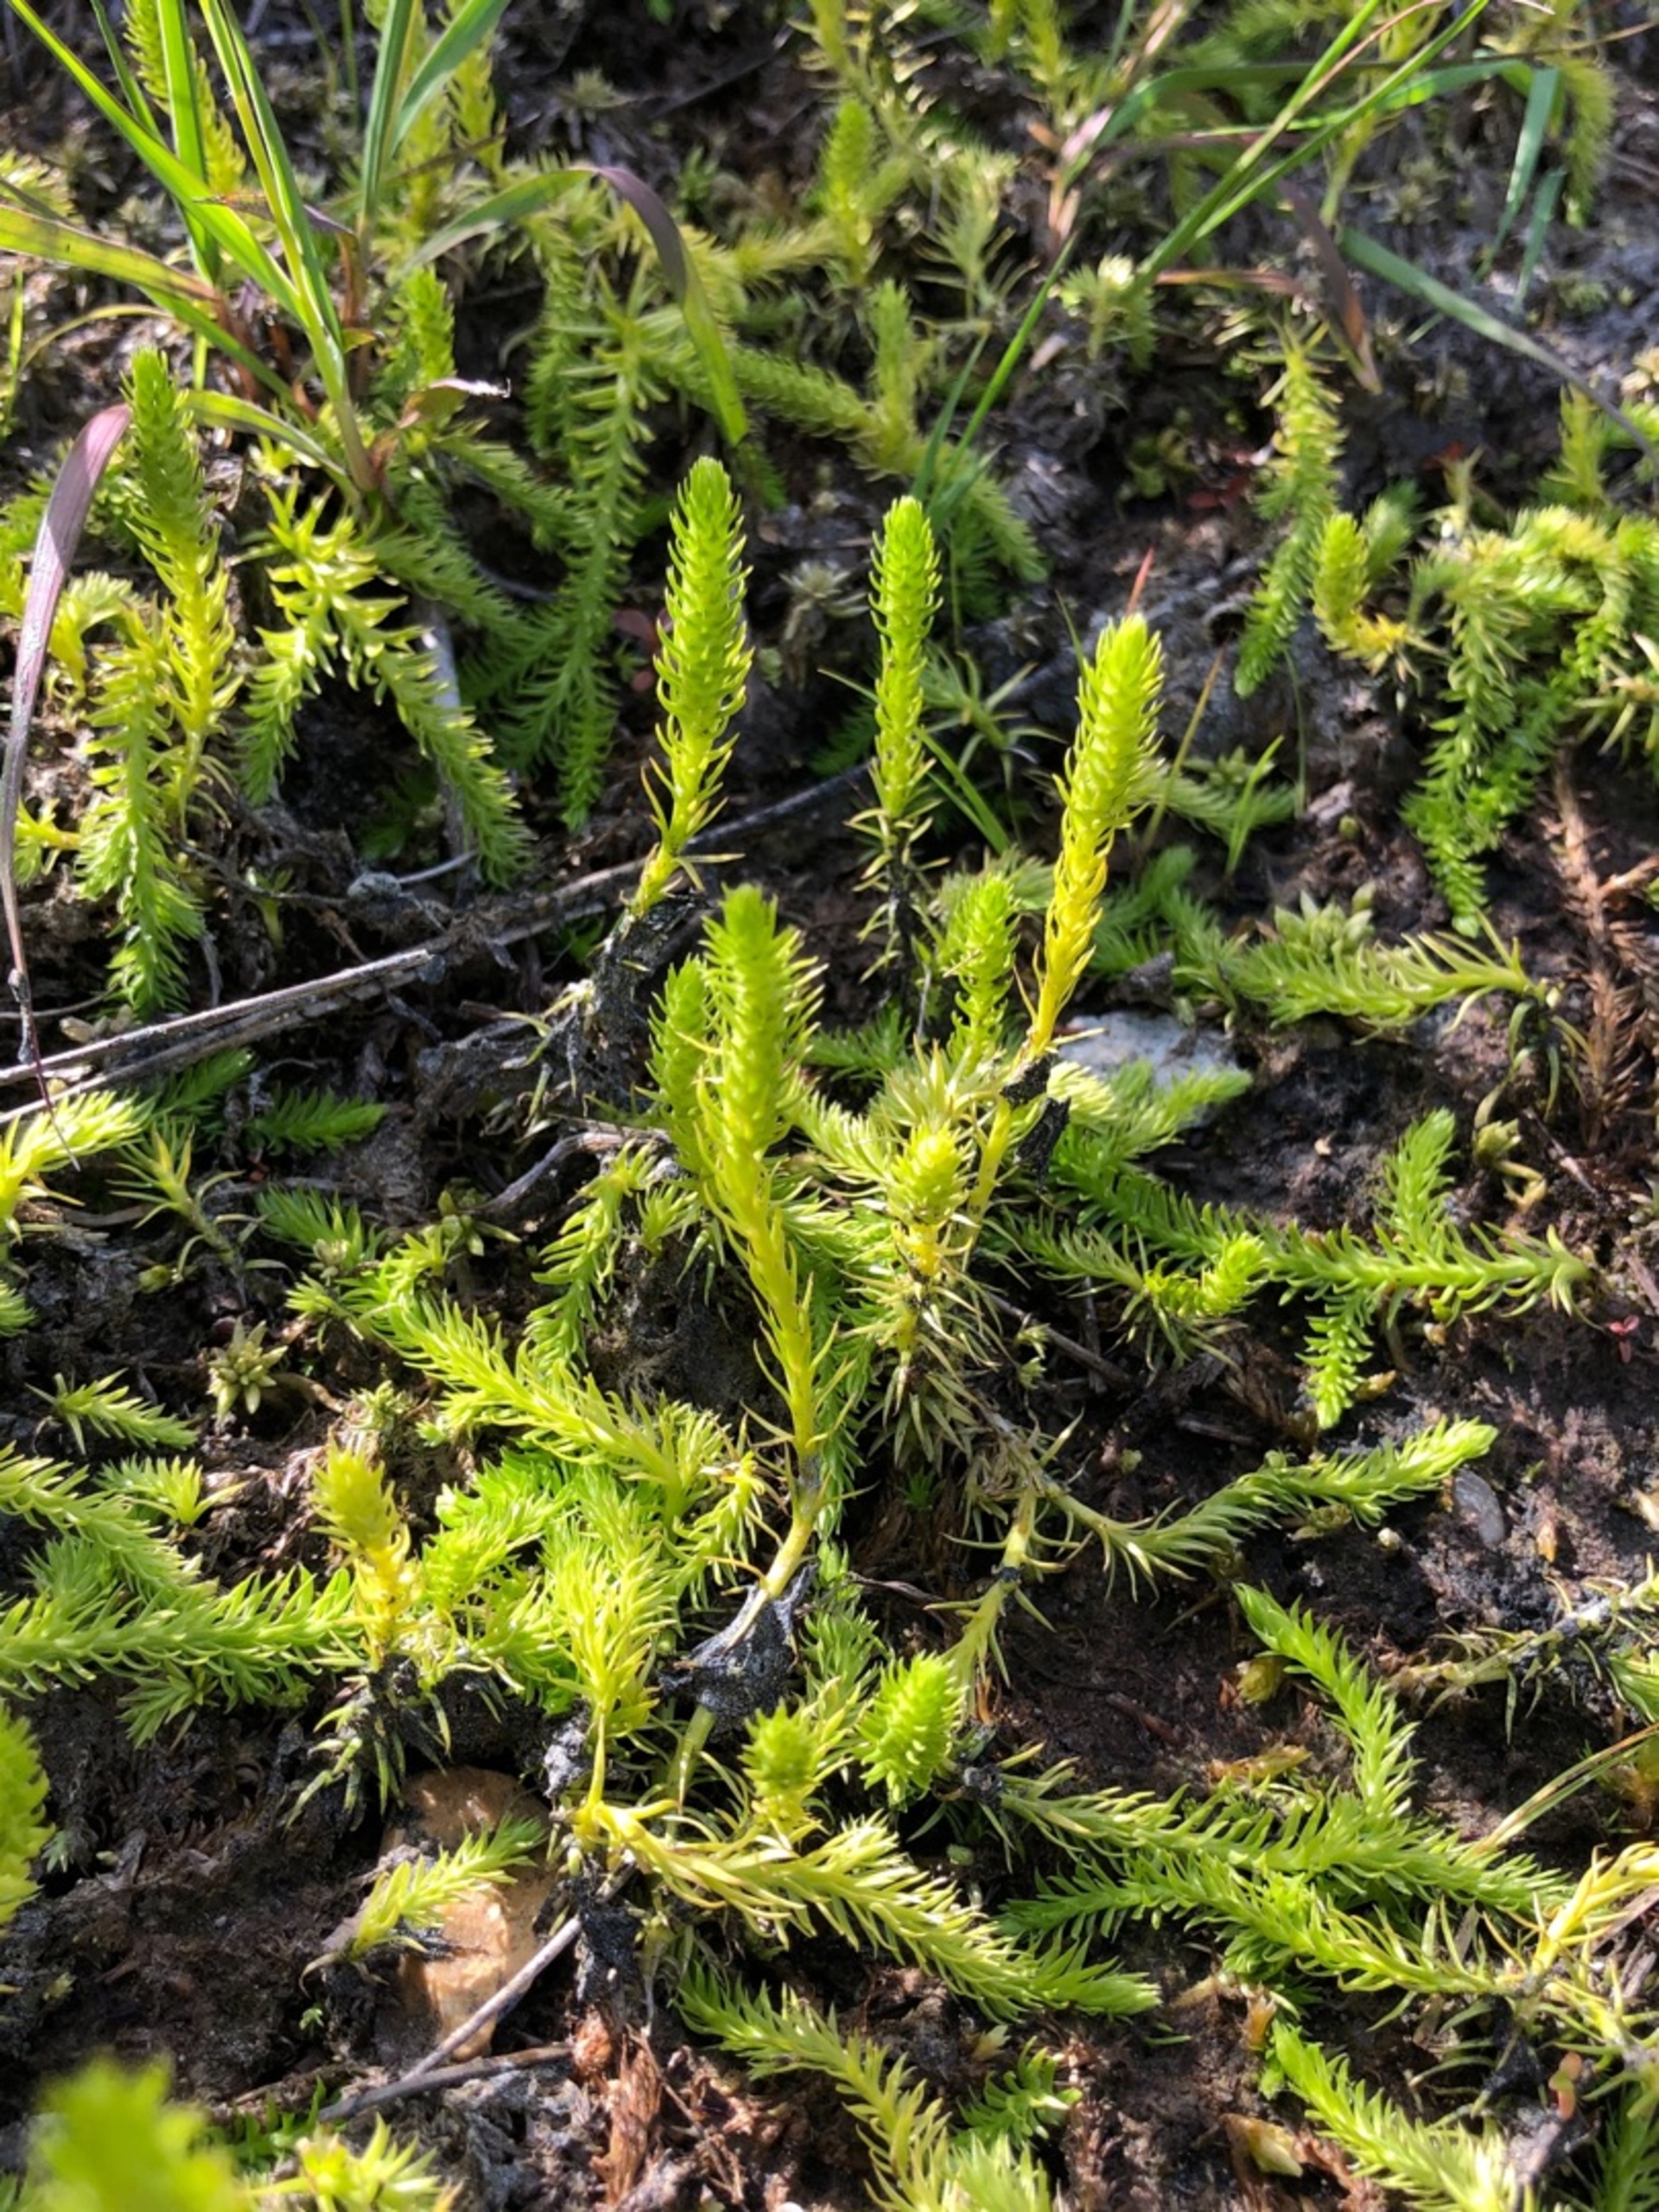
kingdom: Plantae
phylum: Tracheophyta
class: Lycopodiopsida
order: Lycopodiales
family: Lycopodiaceae
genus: Lycopodiella
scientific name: Lycopodiella inundata
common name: Liden ulvefod
